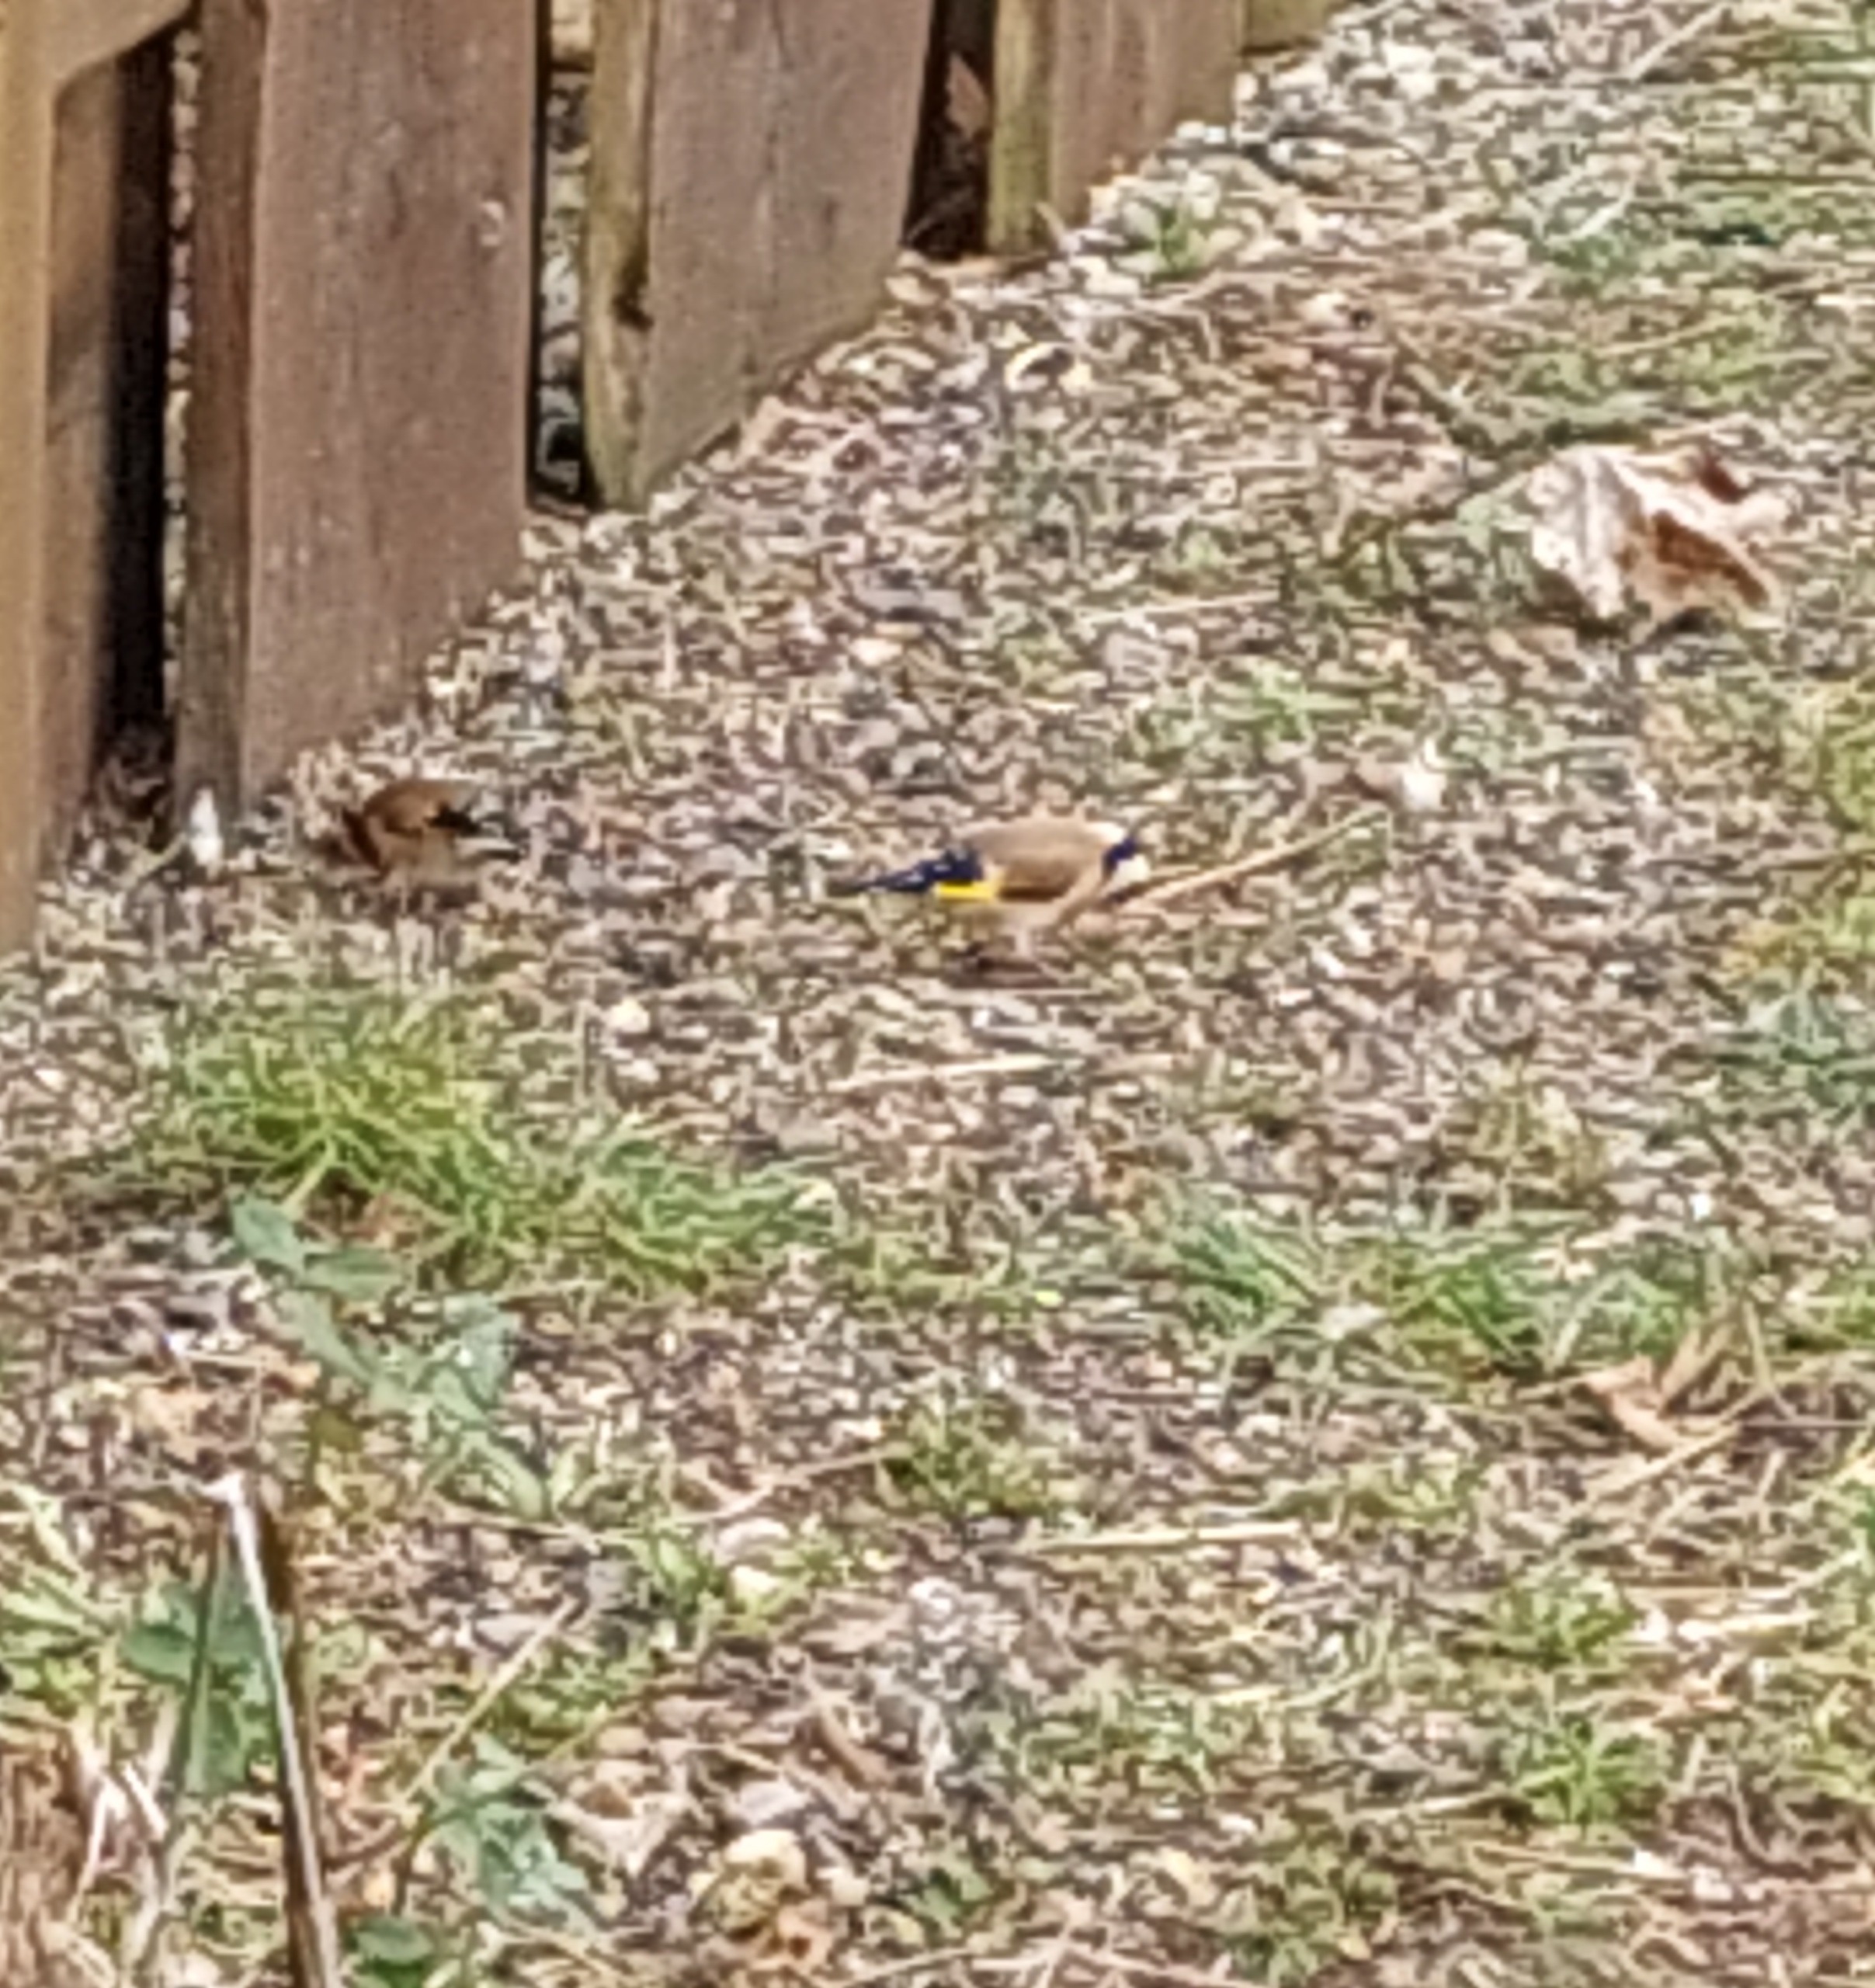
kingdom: Animalia
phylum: Chordata
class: Aves
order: Passeriformes
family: Fringillidae
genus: Carduelis
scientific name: Carduelis carduelis
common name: Stillits
